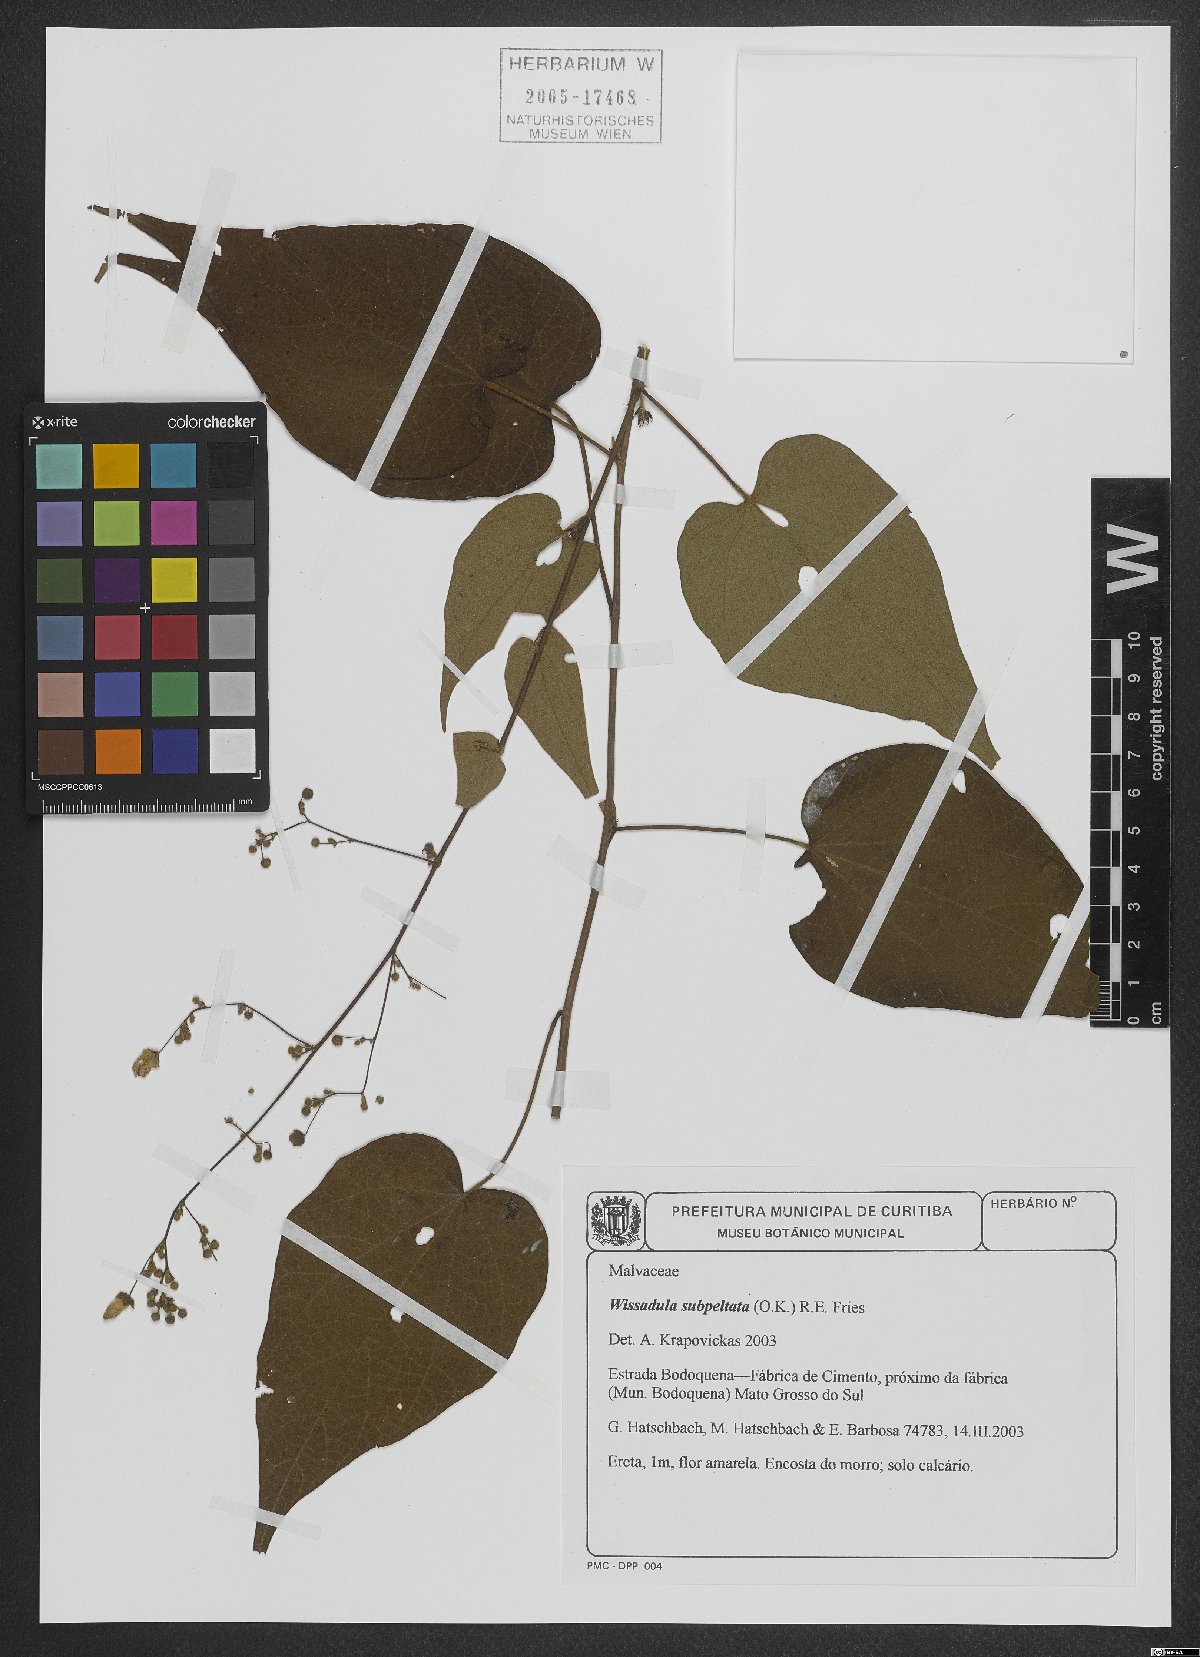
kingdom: Plantae
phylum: Tracheophyta
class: Magnoliopsida
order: Malvales
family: Malvaceae
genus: Wissadula
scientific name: Wissadula subpeltata
